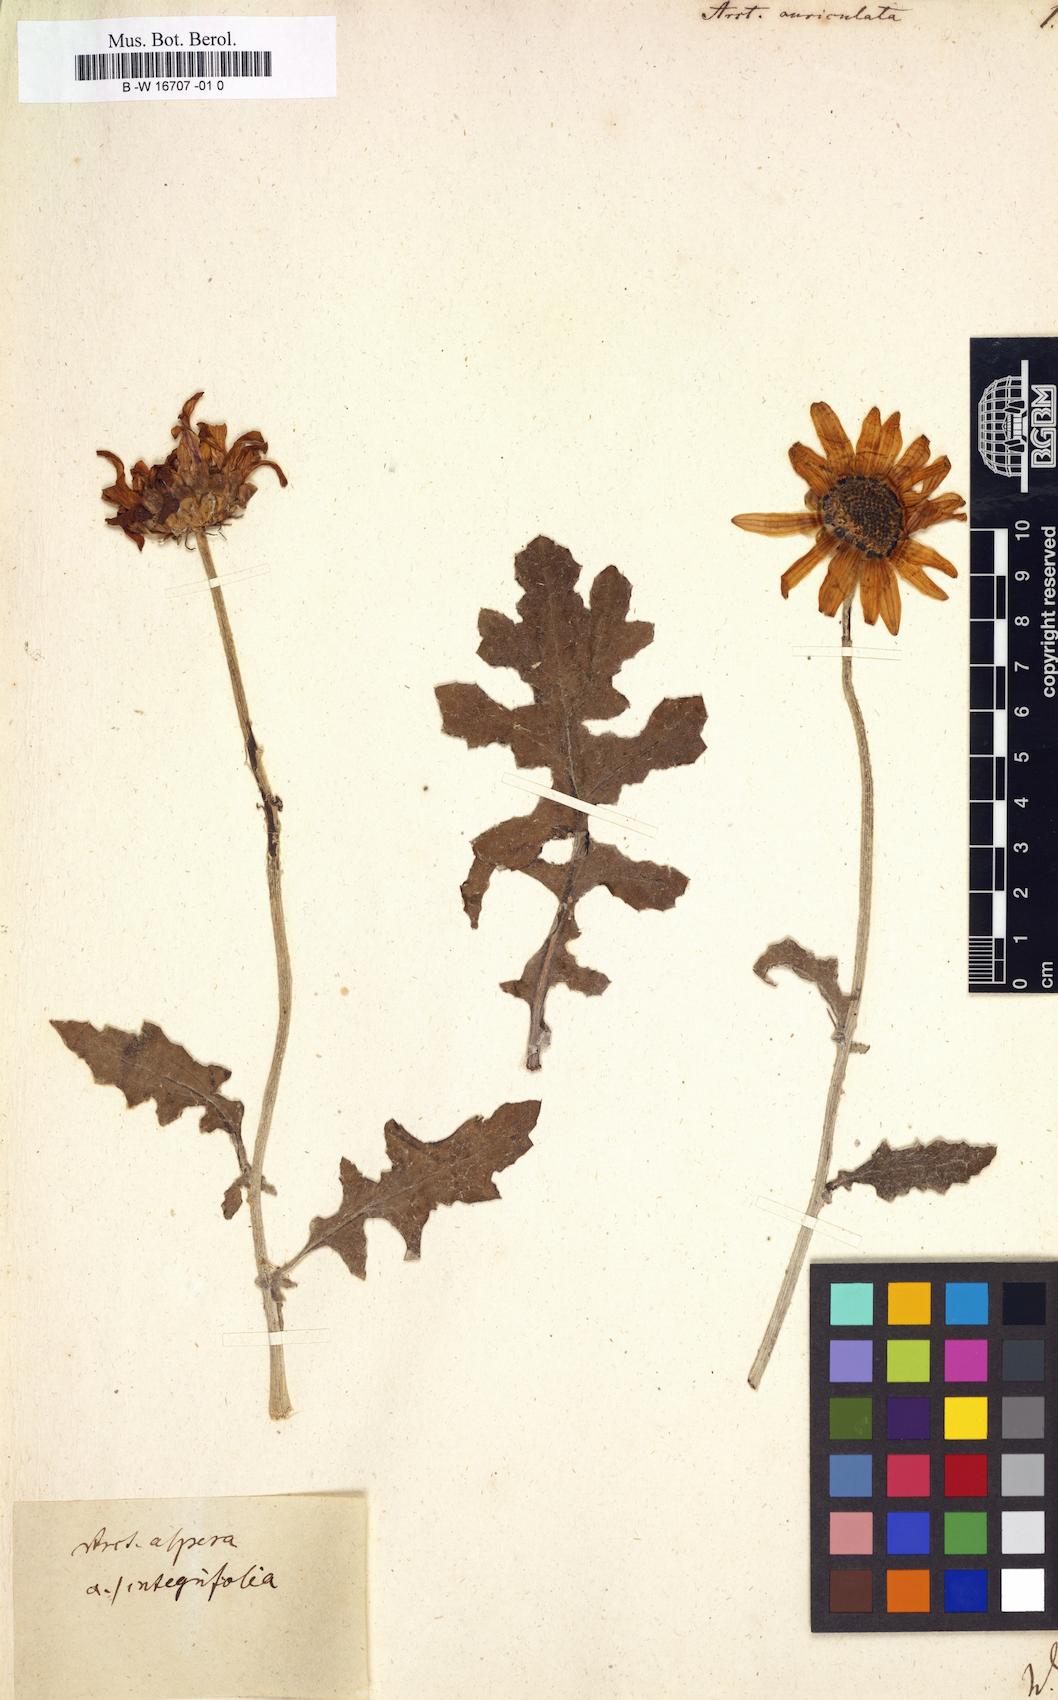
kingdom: Plantae
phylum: Tracheophyta
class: Magnoliopsida
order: Asterales
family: Asteraceae
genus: Arctotis
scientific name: Arctotis auriculata
